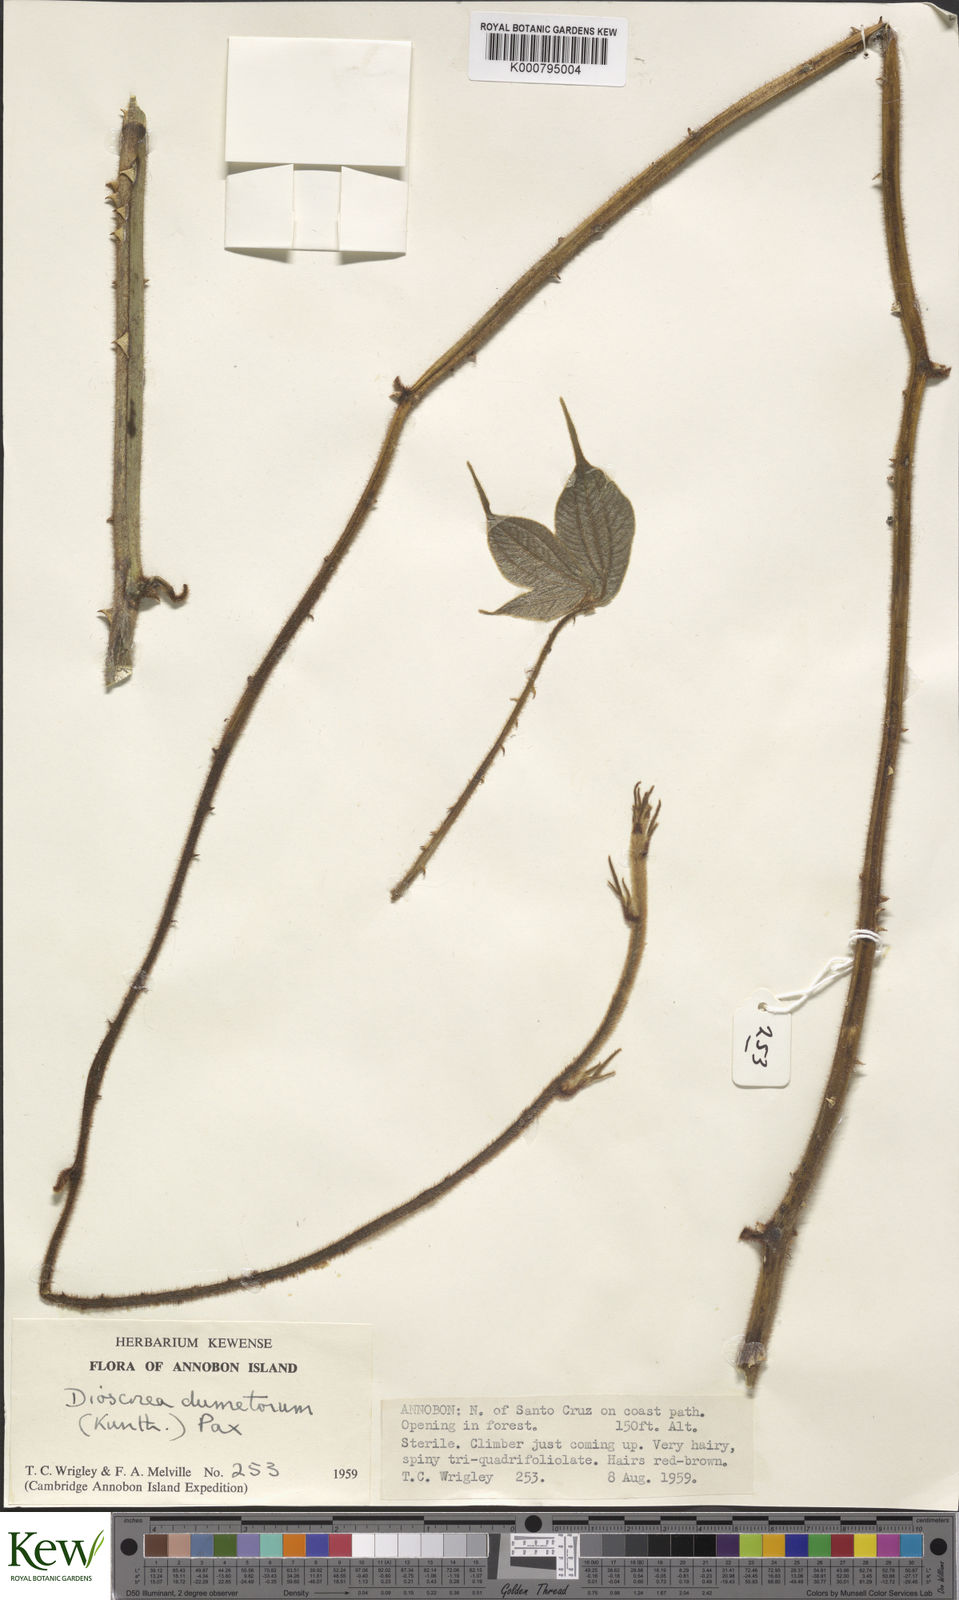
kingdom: Plantae
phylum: Tracheophyta
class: Liliopsida
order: Dioscoreales
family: Dioscoreaceae
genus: Dioscorea
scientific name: Dioscorea dumetorum
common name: African bitter yam
